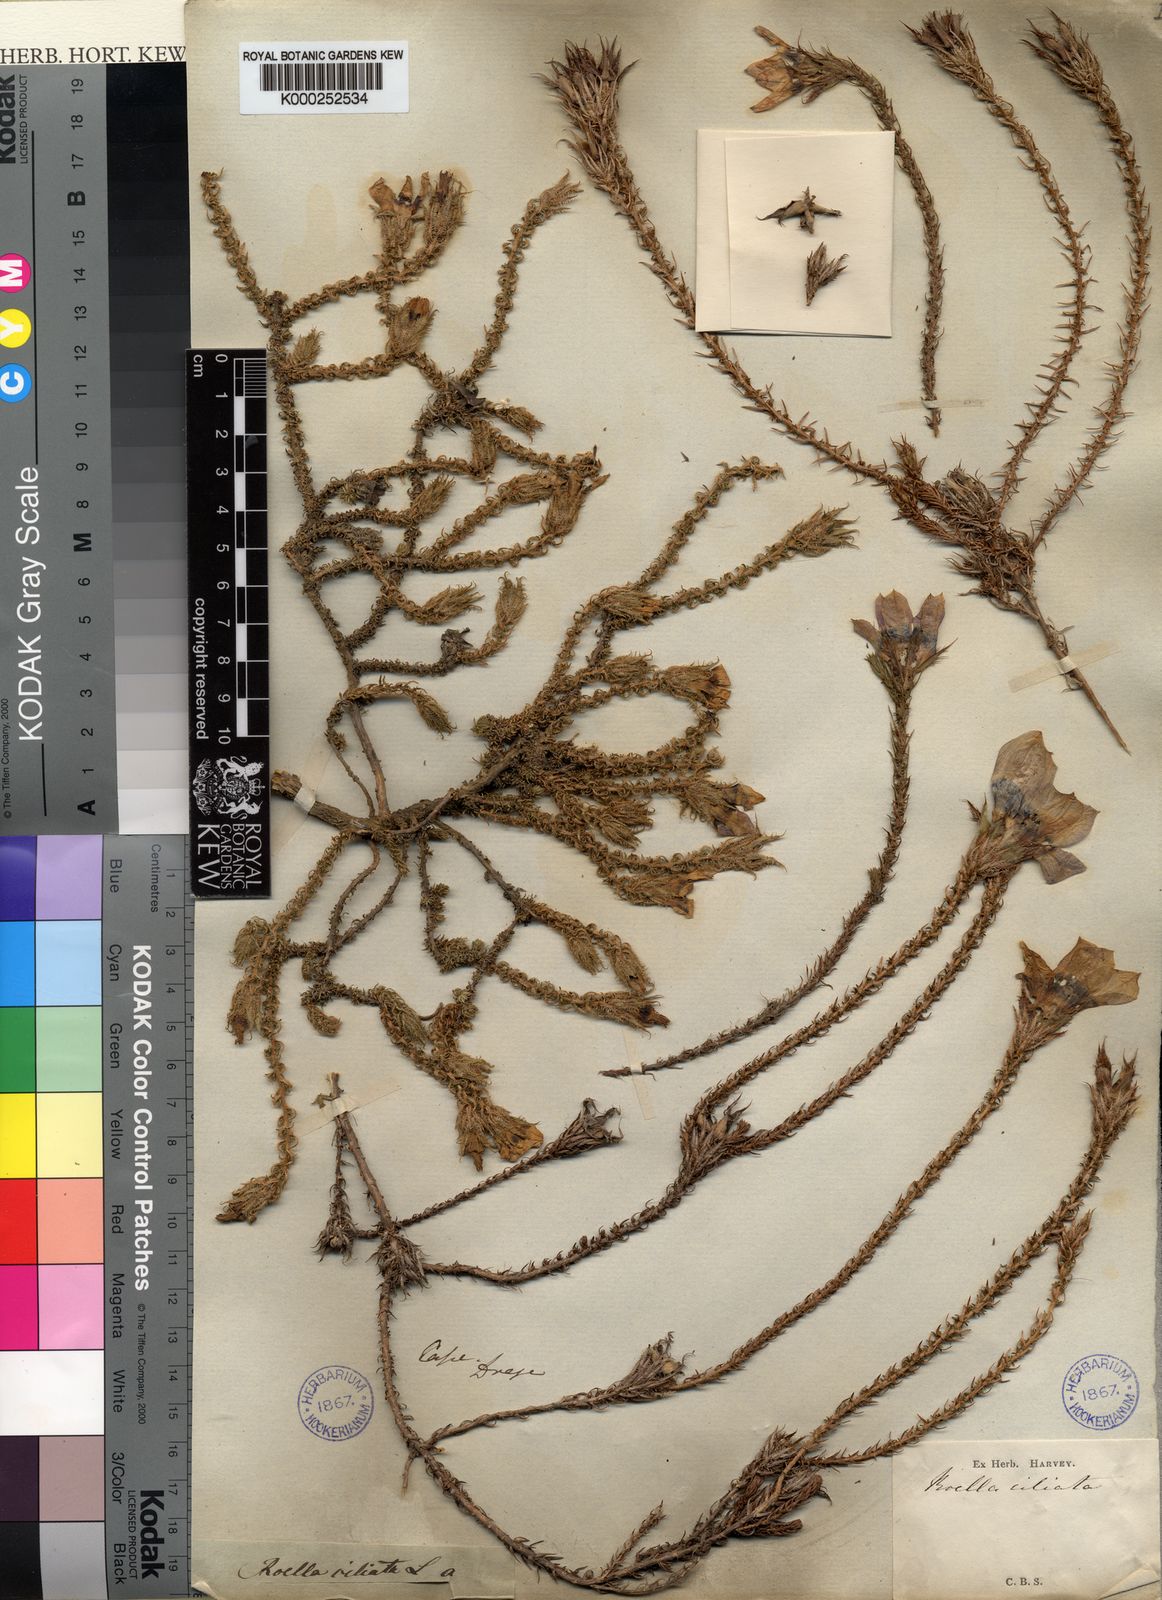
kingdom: Plantae
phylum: Tracheophyta
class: Magnoliopsida
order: Asterales
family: Campanulaceae
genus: Roella
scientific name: Roella ciliata
